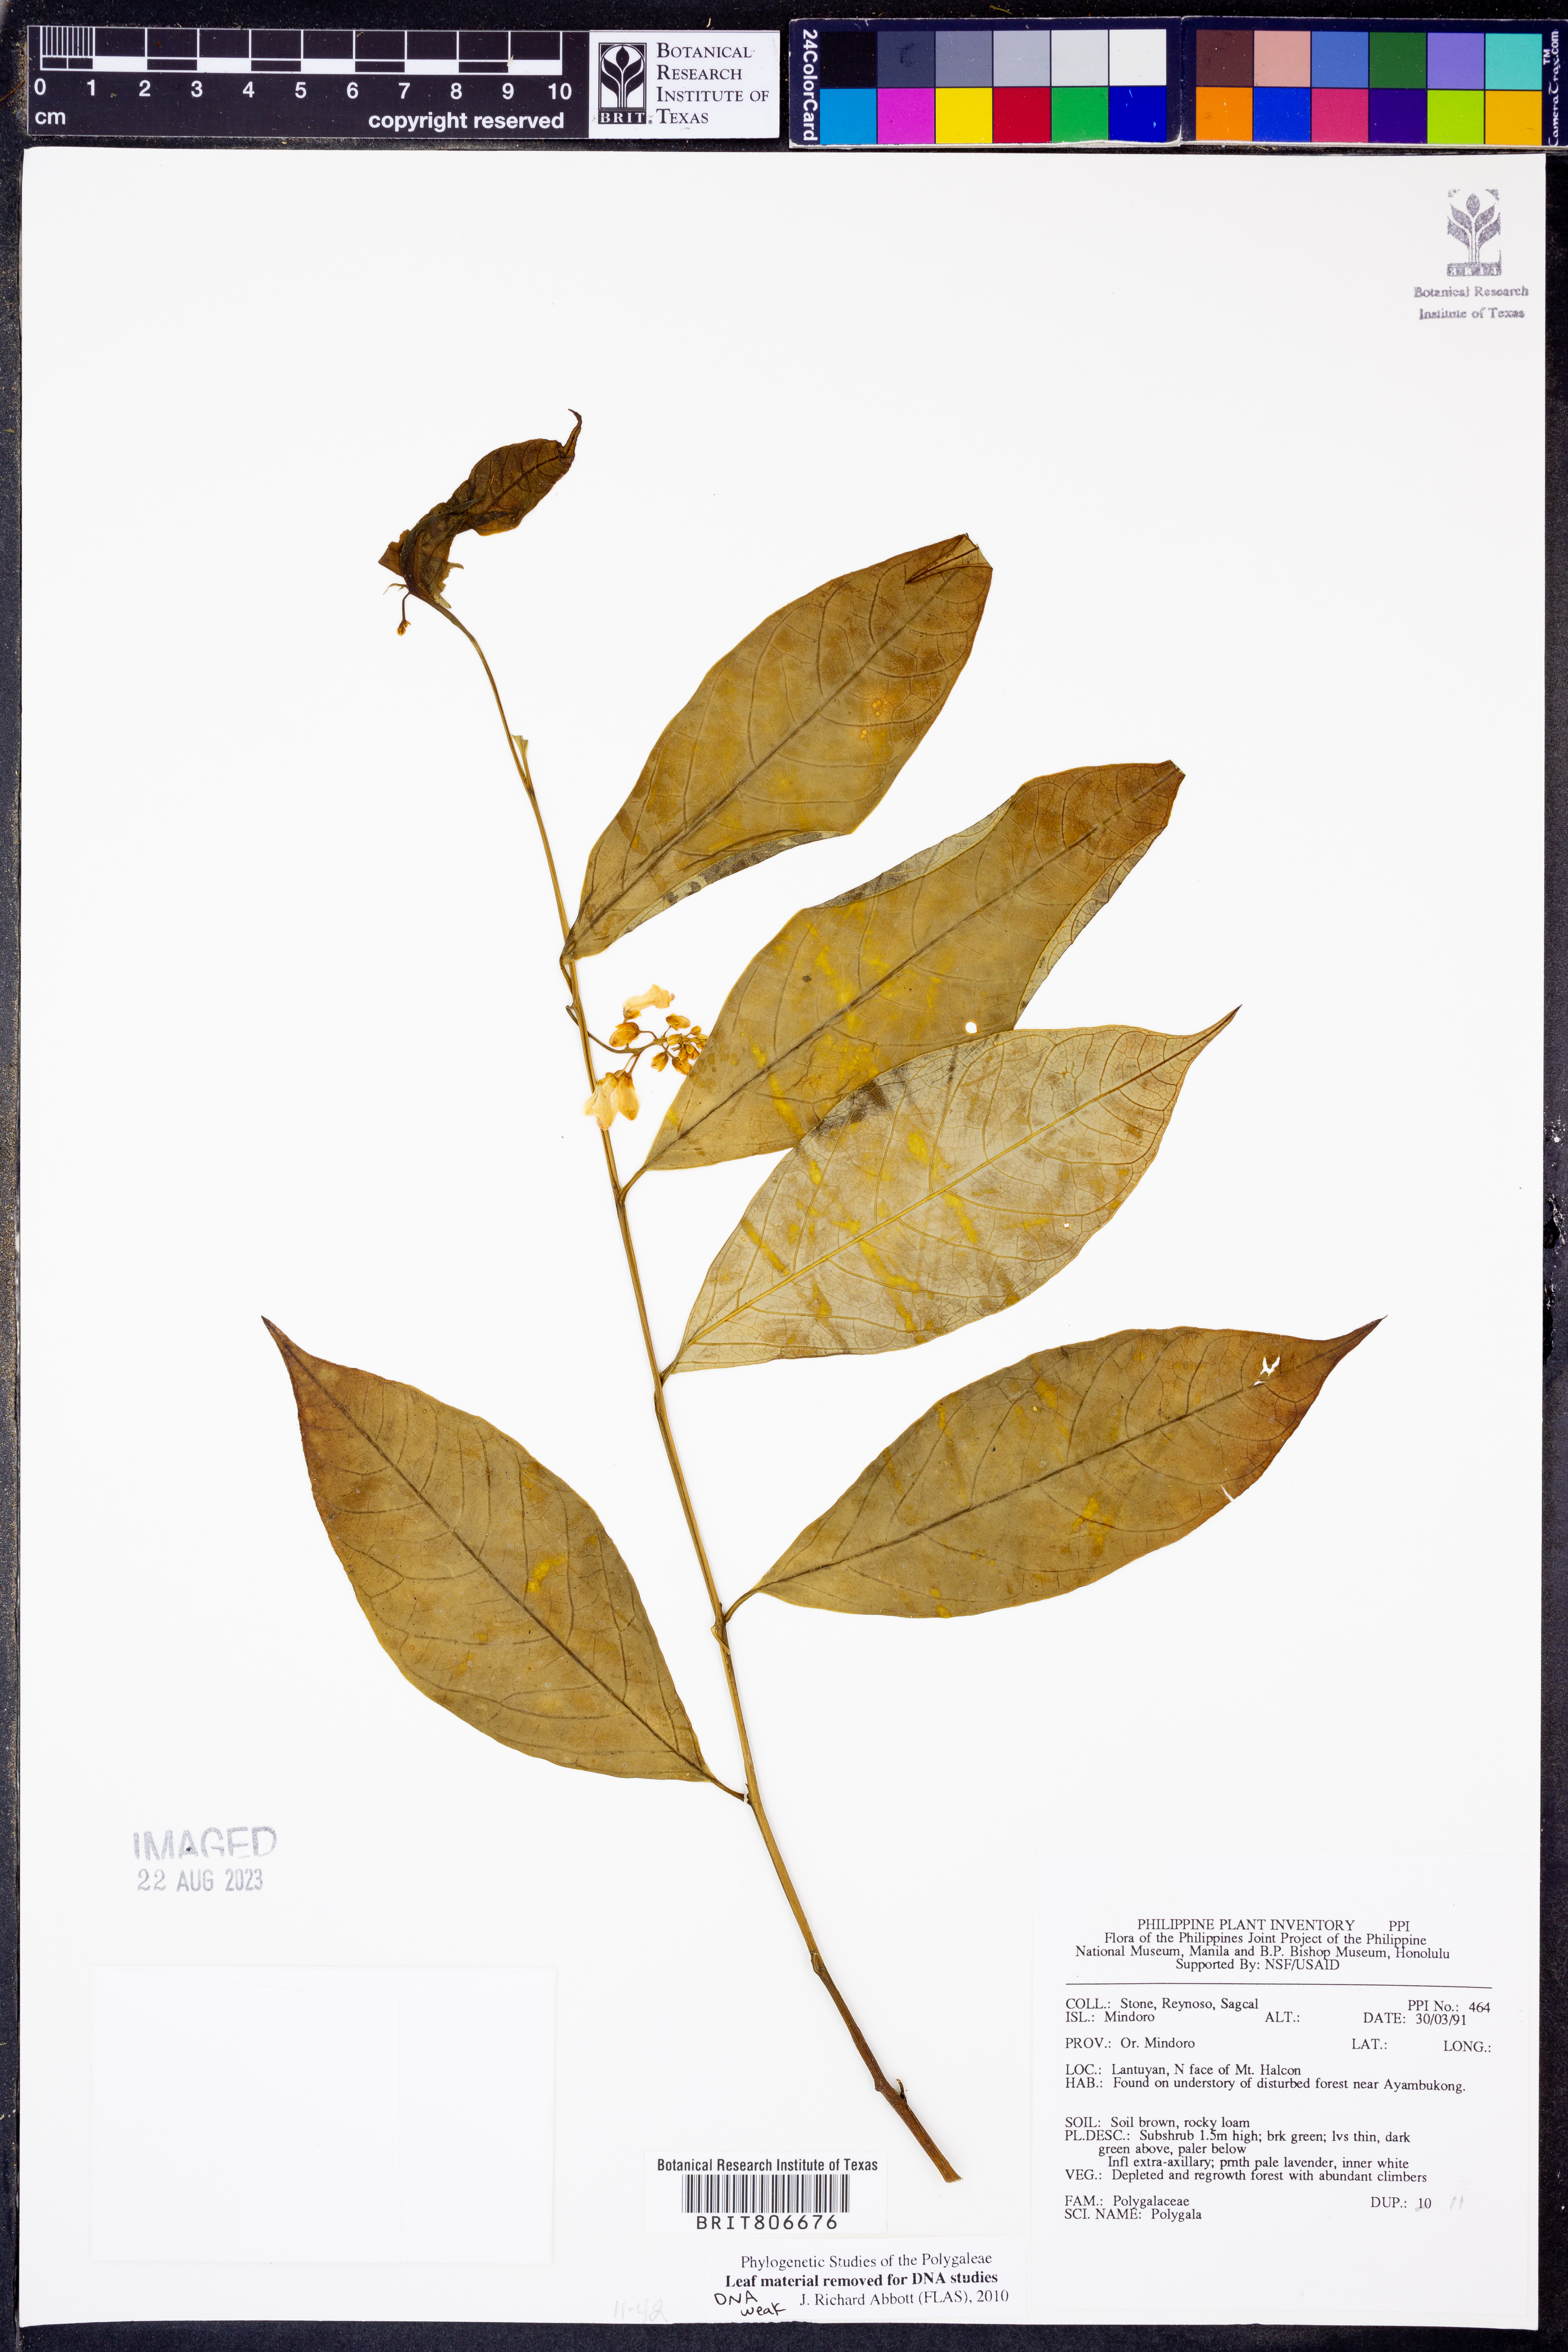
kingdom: Plantae
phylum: Tracheophyta
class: Magnoliopsida
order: Fabales
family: Polygalaceae
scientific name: Polygalaceae
